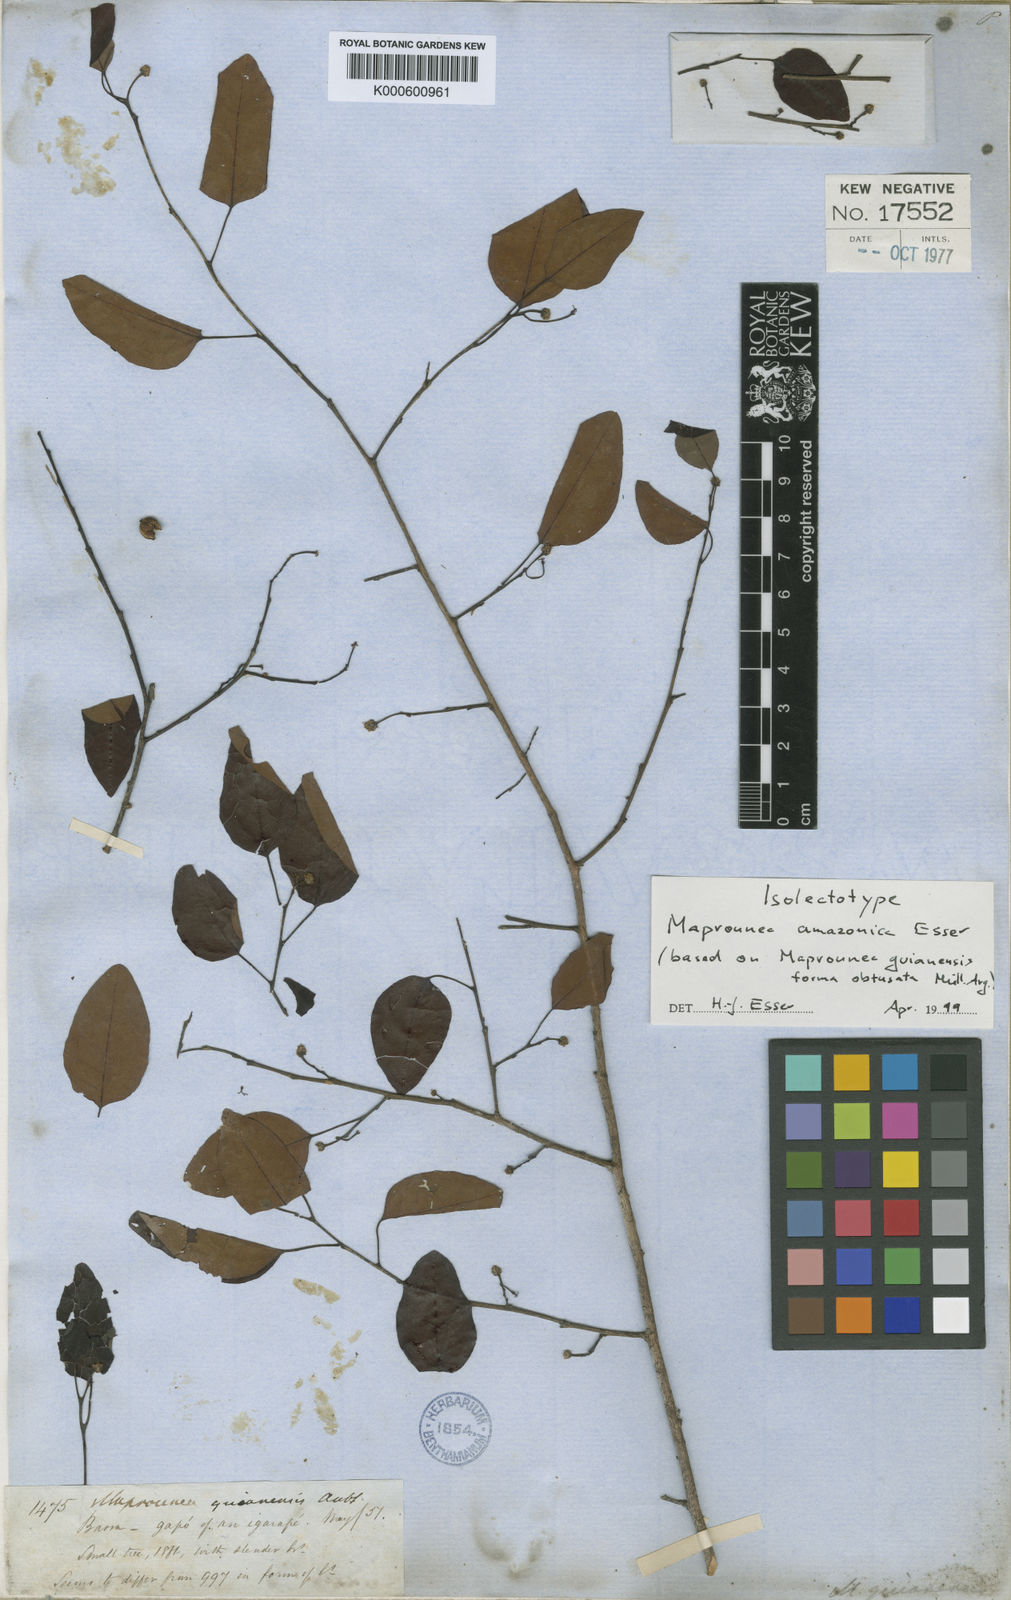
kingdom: Plantae
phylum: Tracheophyta
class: Magnoliopsida
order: Malpighiales
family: Euphorbiaceae
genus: Maprounea
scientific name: Maprounea brasiliensis
